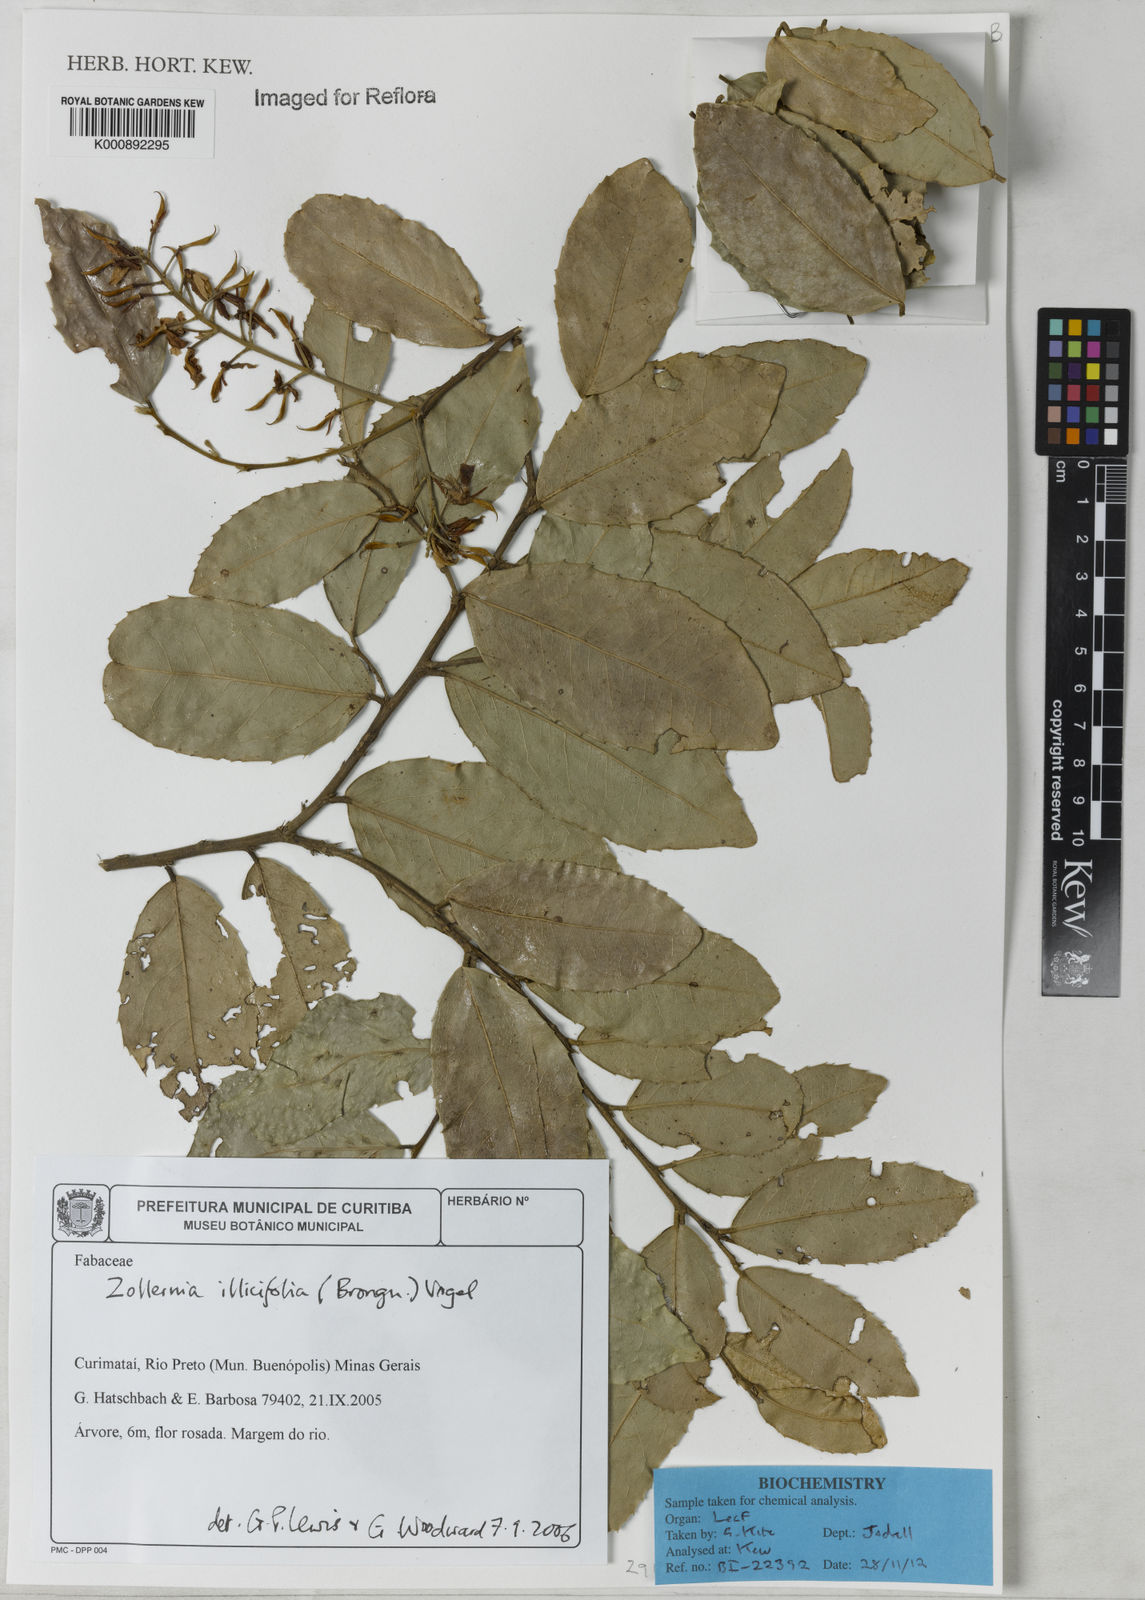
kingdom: Plantae
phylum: Tracheophyta
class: Magnoliopsida
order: Fabales
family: Fabaceae
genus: Zollernia
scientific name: Zollernia ilicifolia
